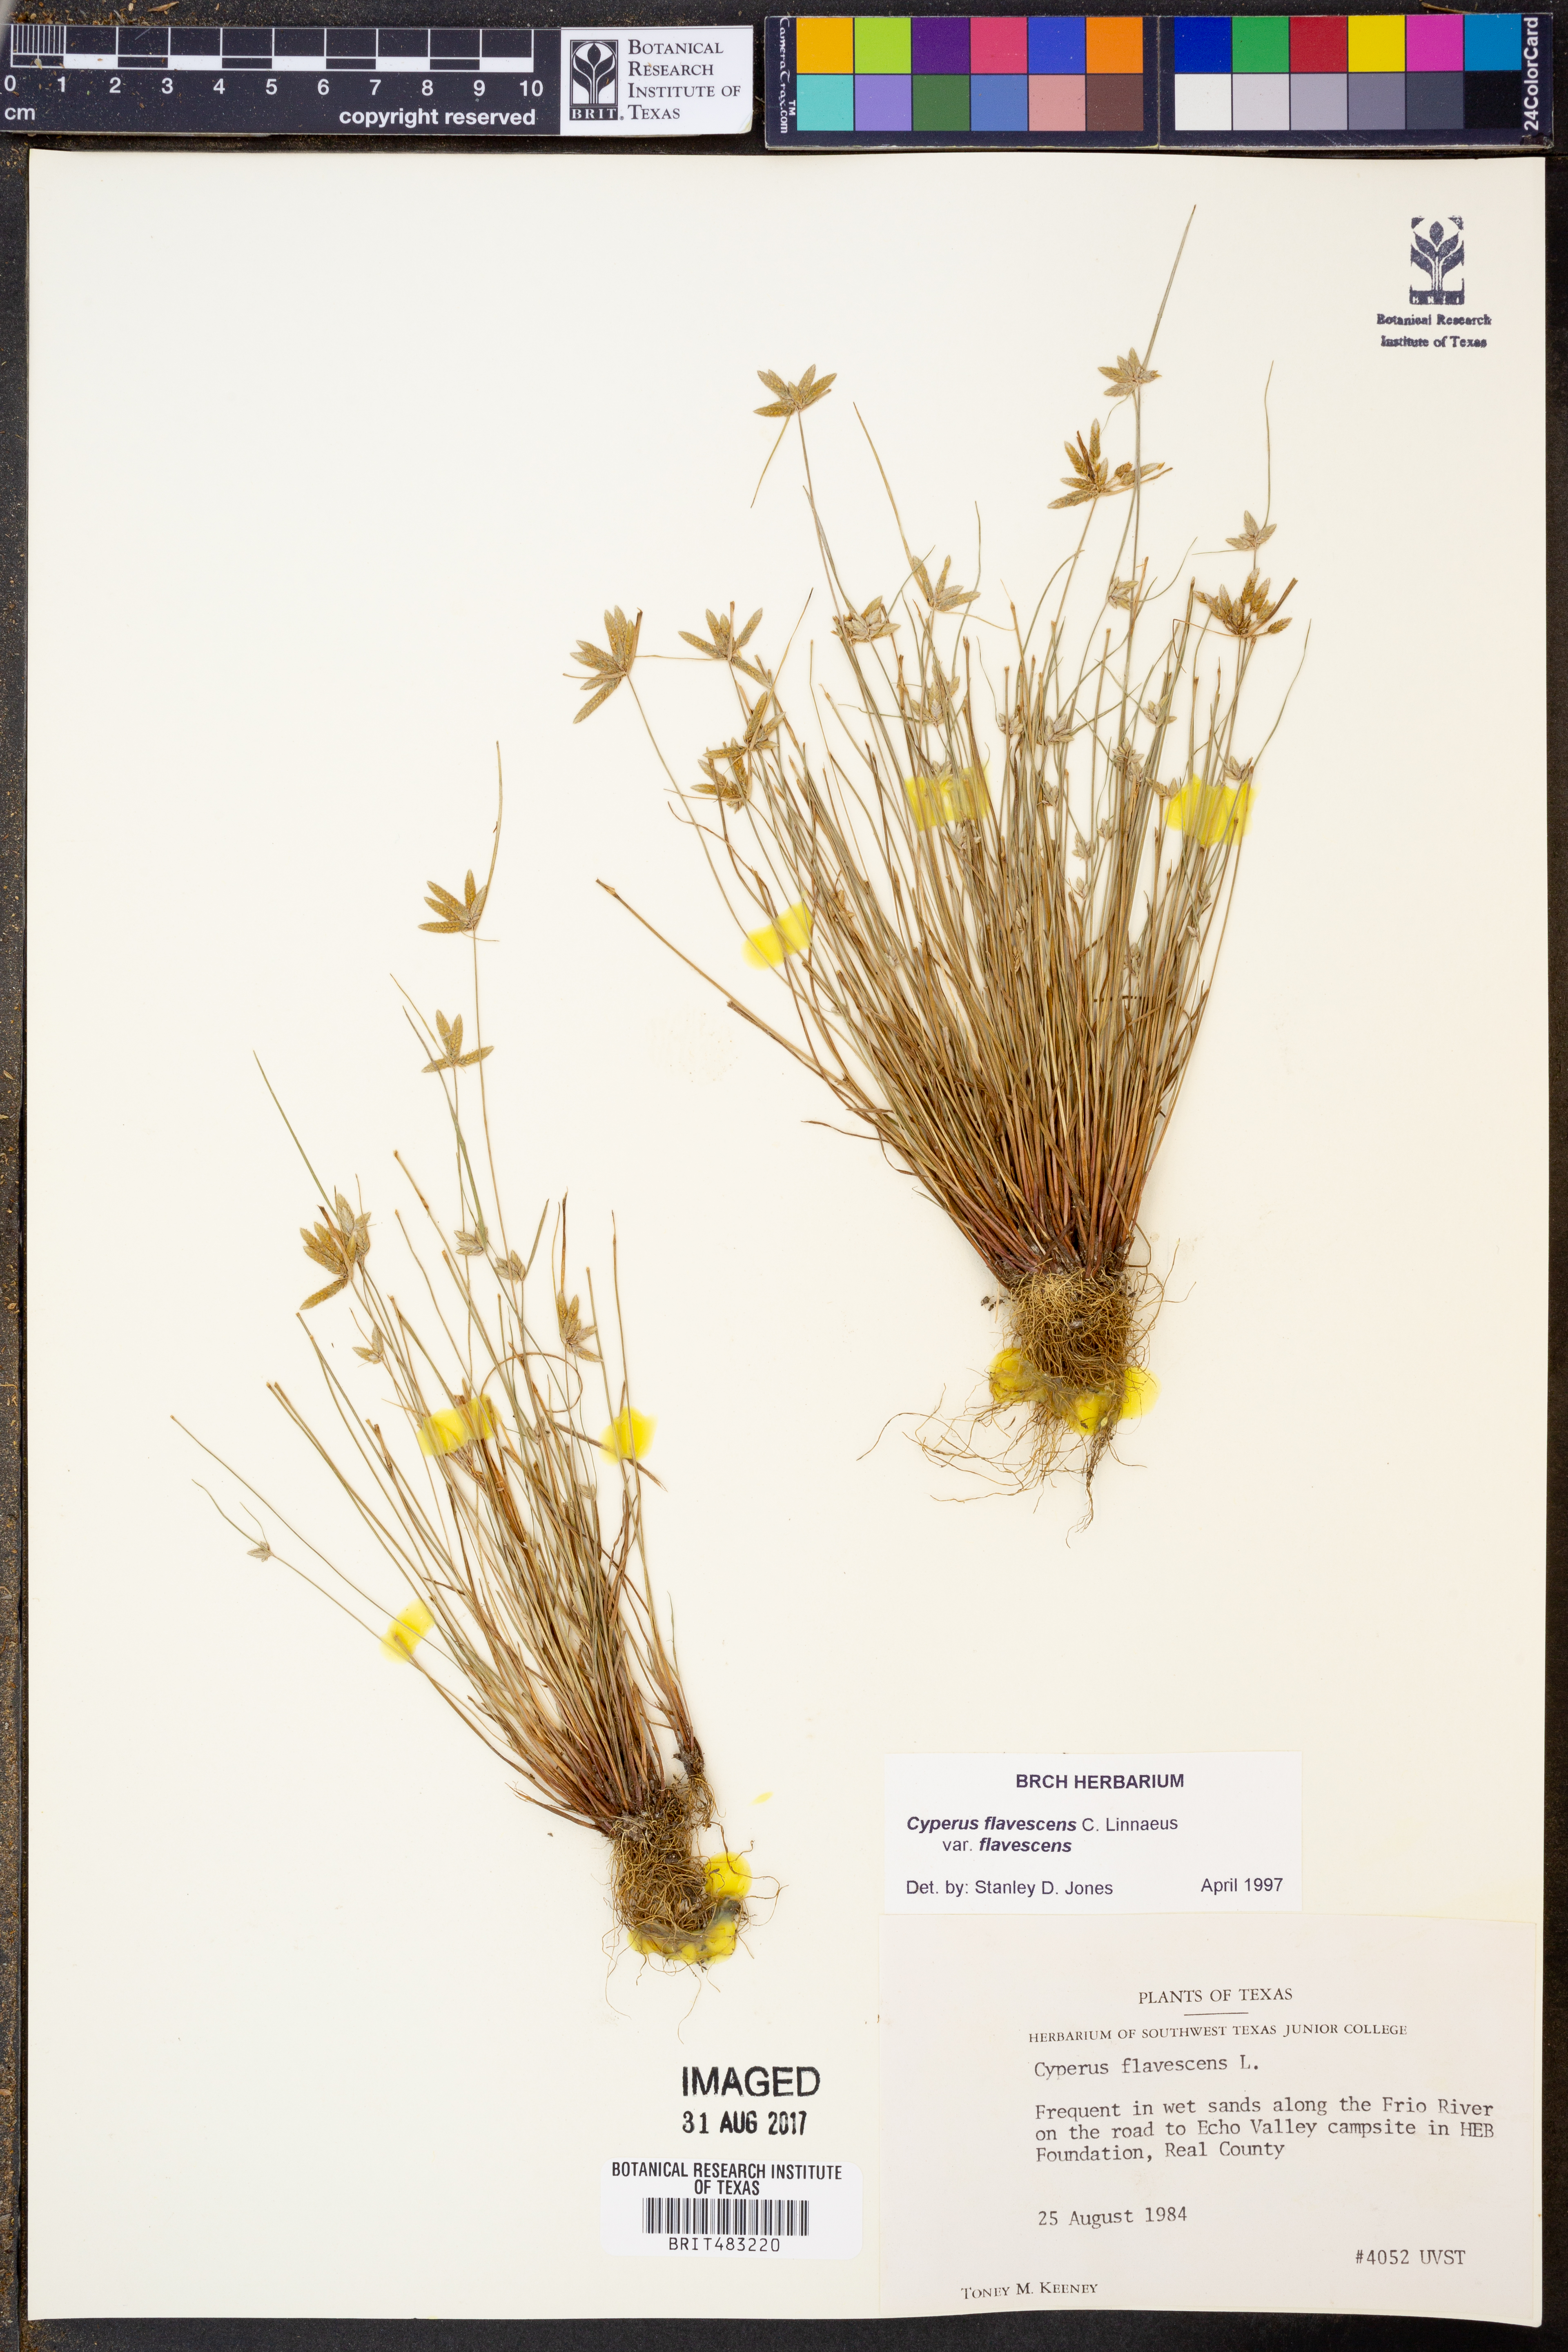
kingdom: Plantae
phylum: Tracheophyta
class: Liliopsida
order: Poales
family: Cyperaceae
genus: Cyperus
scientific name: Cyperus flavescens
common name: Yellow galingale
